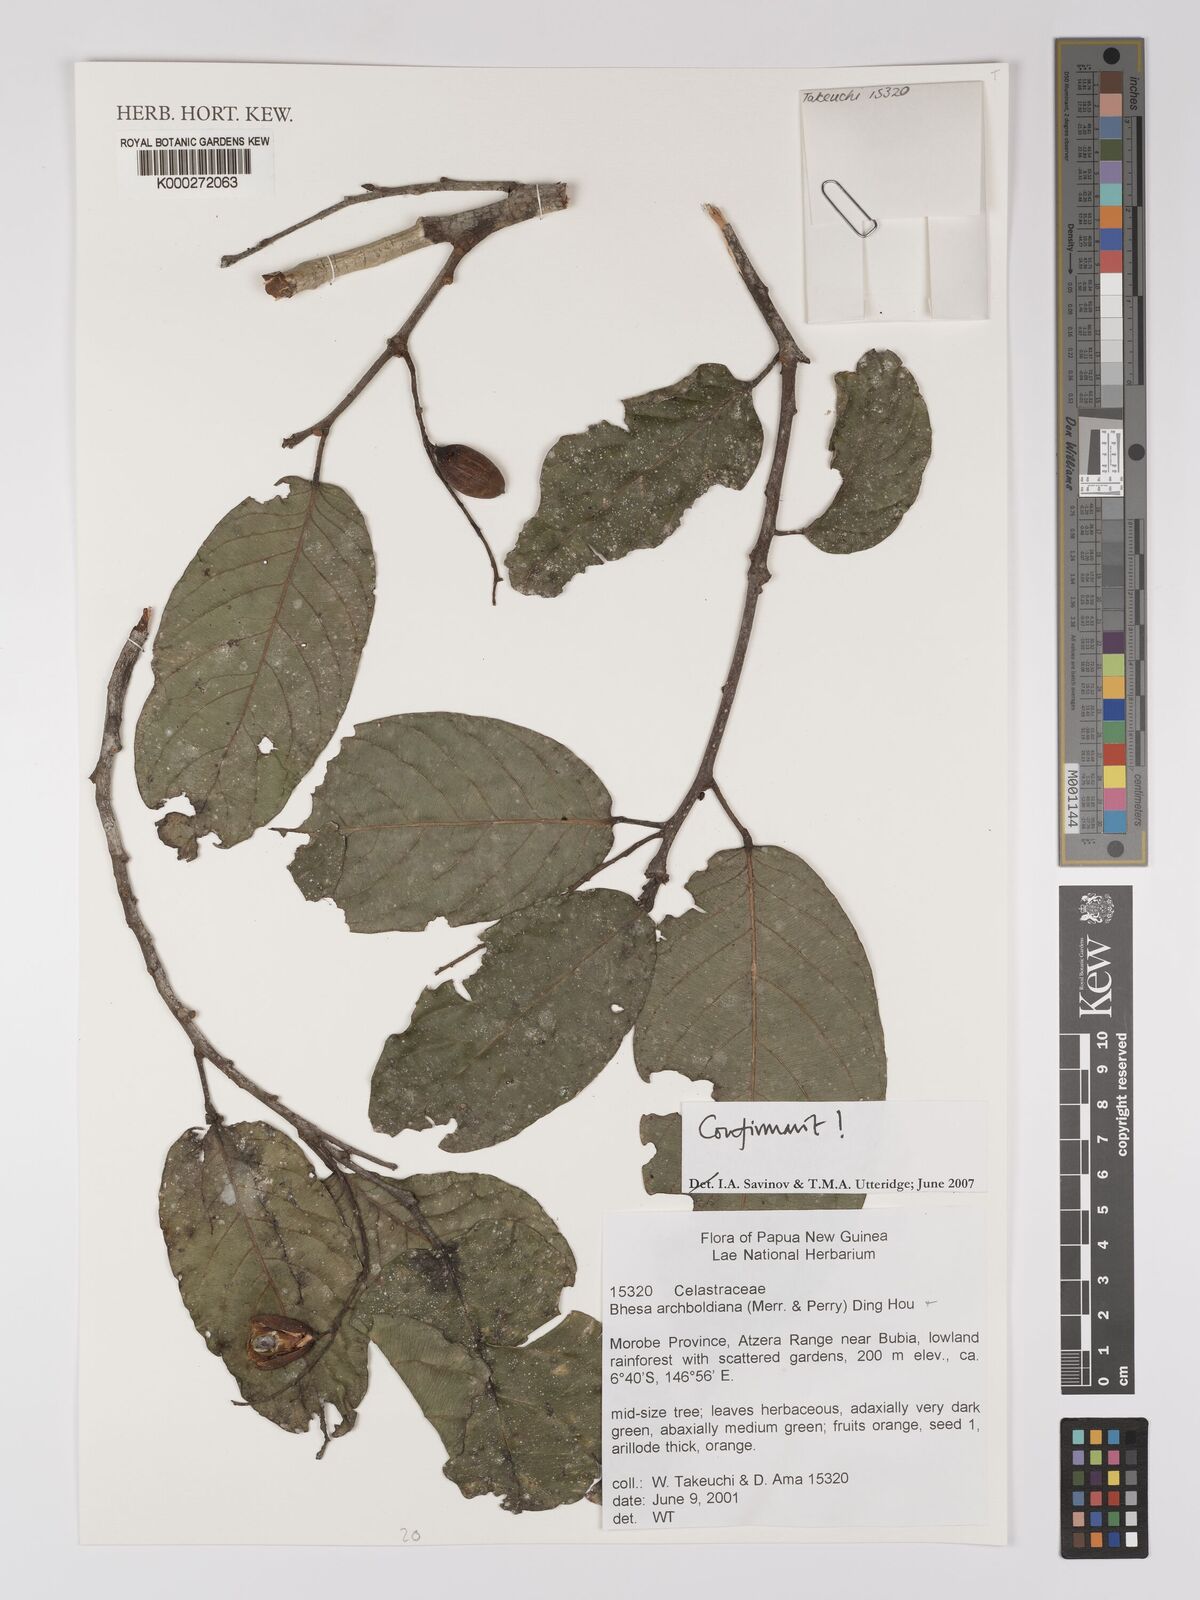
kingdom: Plantae
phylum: Tracheophyta
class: Magnoliopsida
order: Malpighiales
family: Centroplacaceae
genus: Bhesa
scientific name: Bhesa archboldiana
